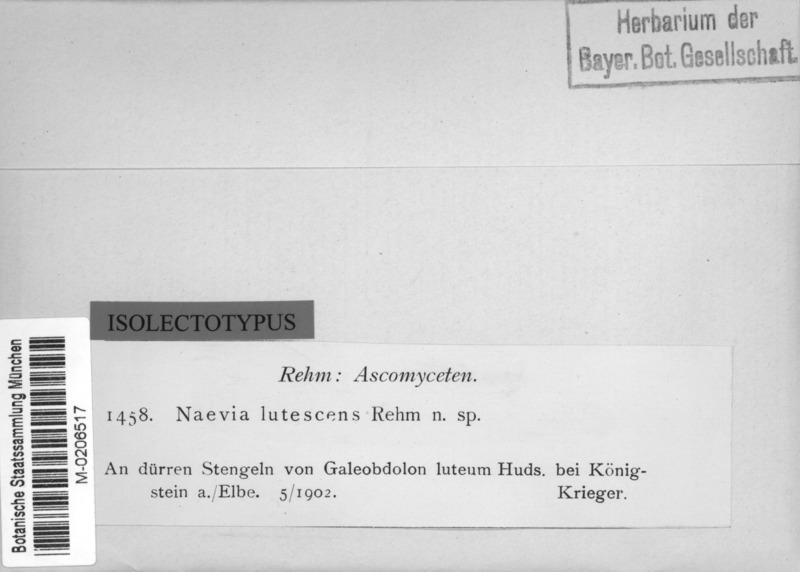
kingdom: Fungi
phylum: Ascomycota
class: Leotiomycetes
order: Helotiales
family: Dermateaceae
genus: Naevia
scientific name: Naevia lutescens
